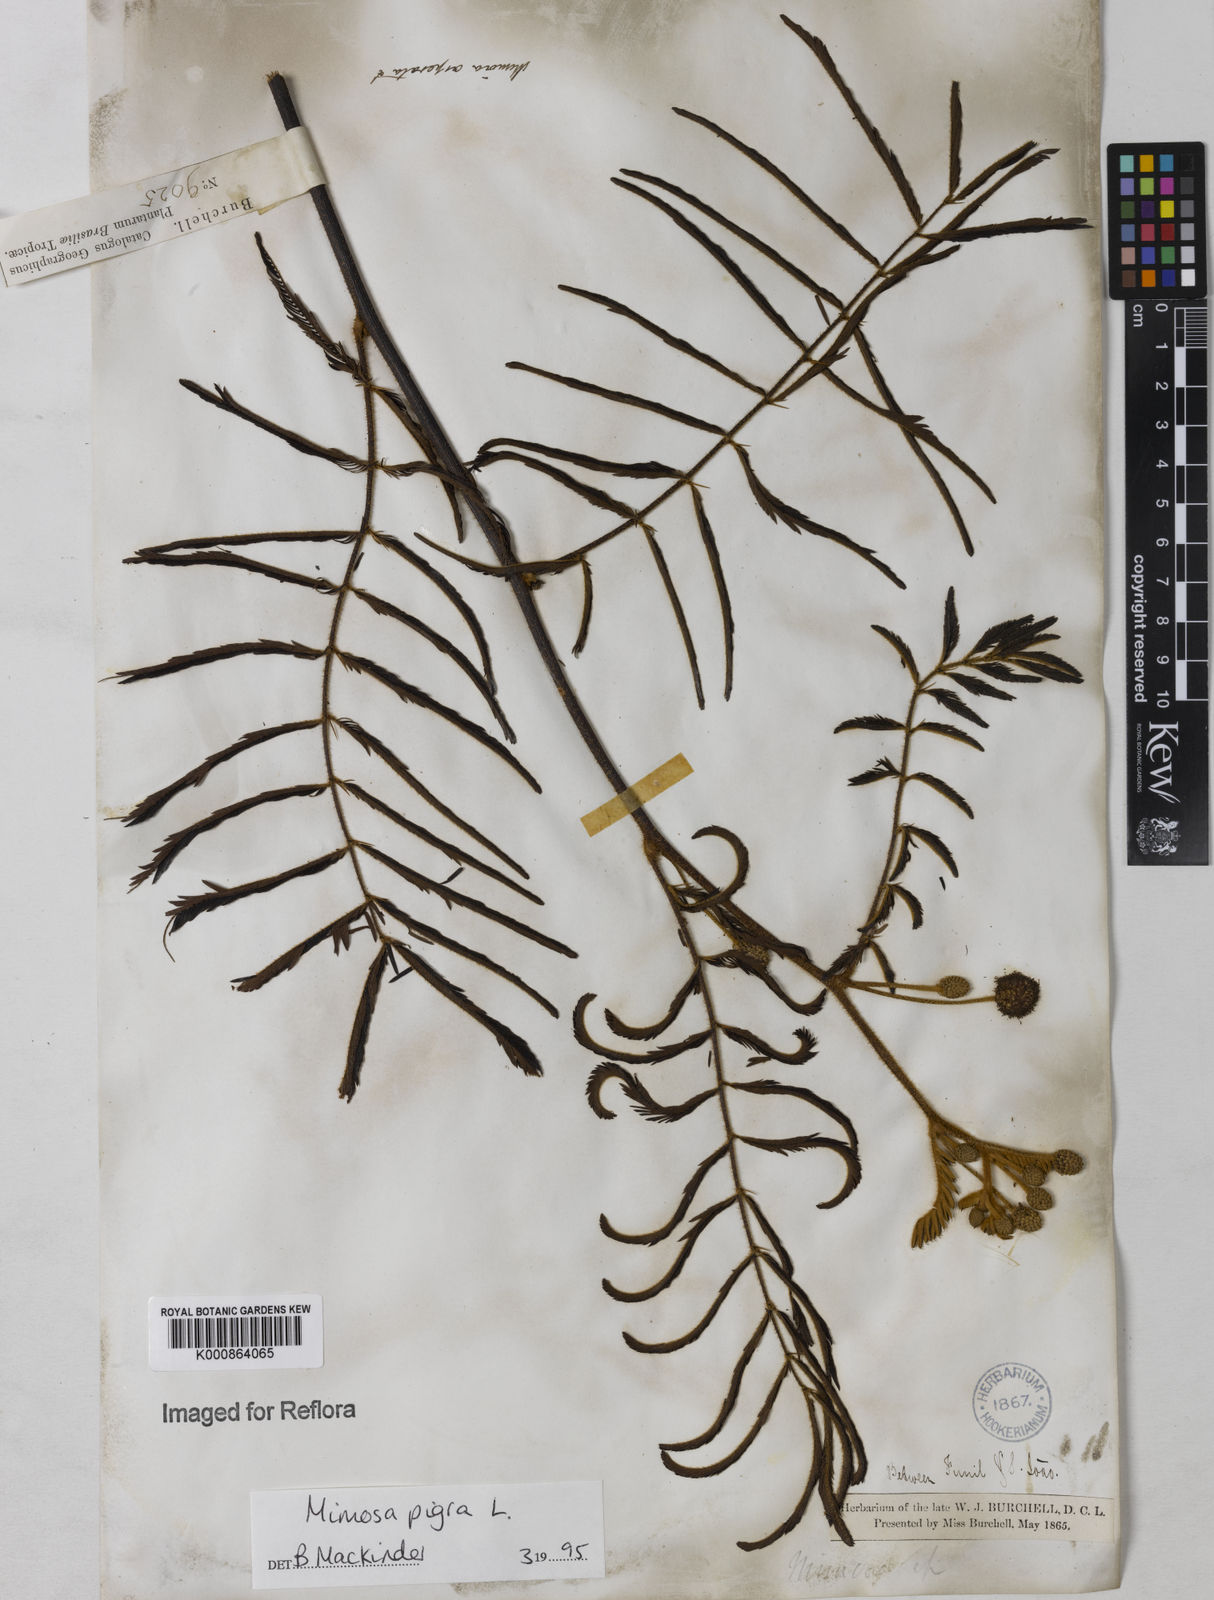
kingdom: Plantae
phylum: Tracheophyta
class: Magnoliopsida
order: Fabales
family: Fabaceae
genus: Mimosa
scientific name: Mimosa pigra
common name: Black mimosa
